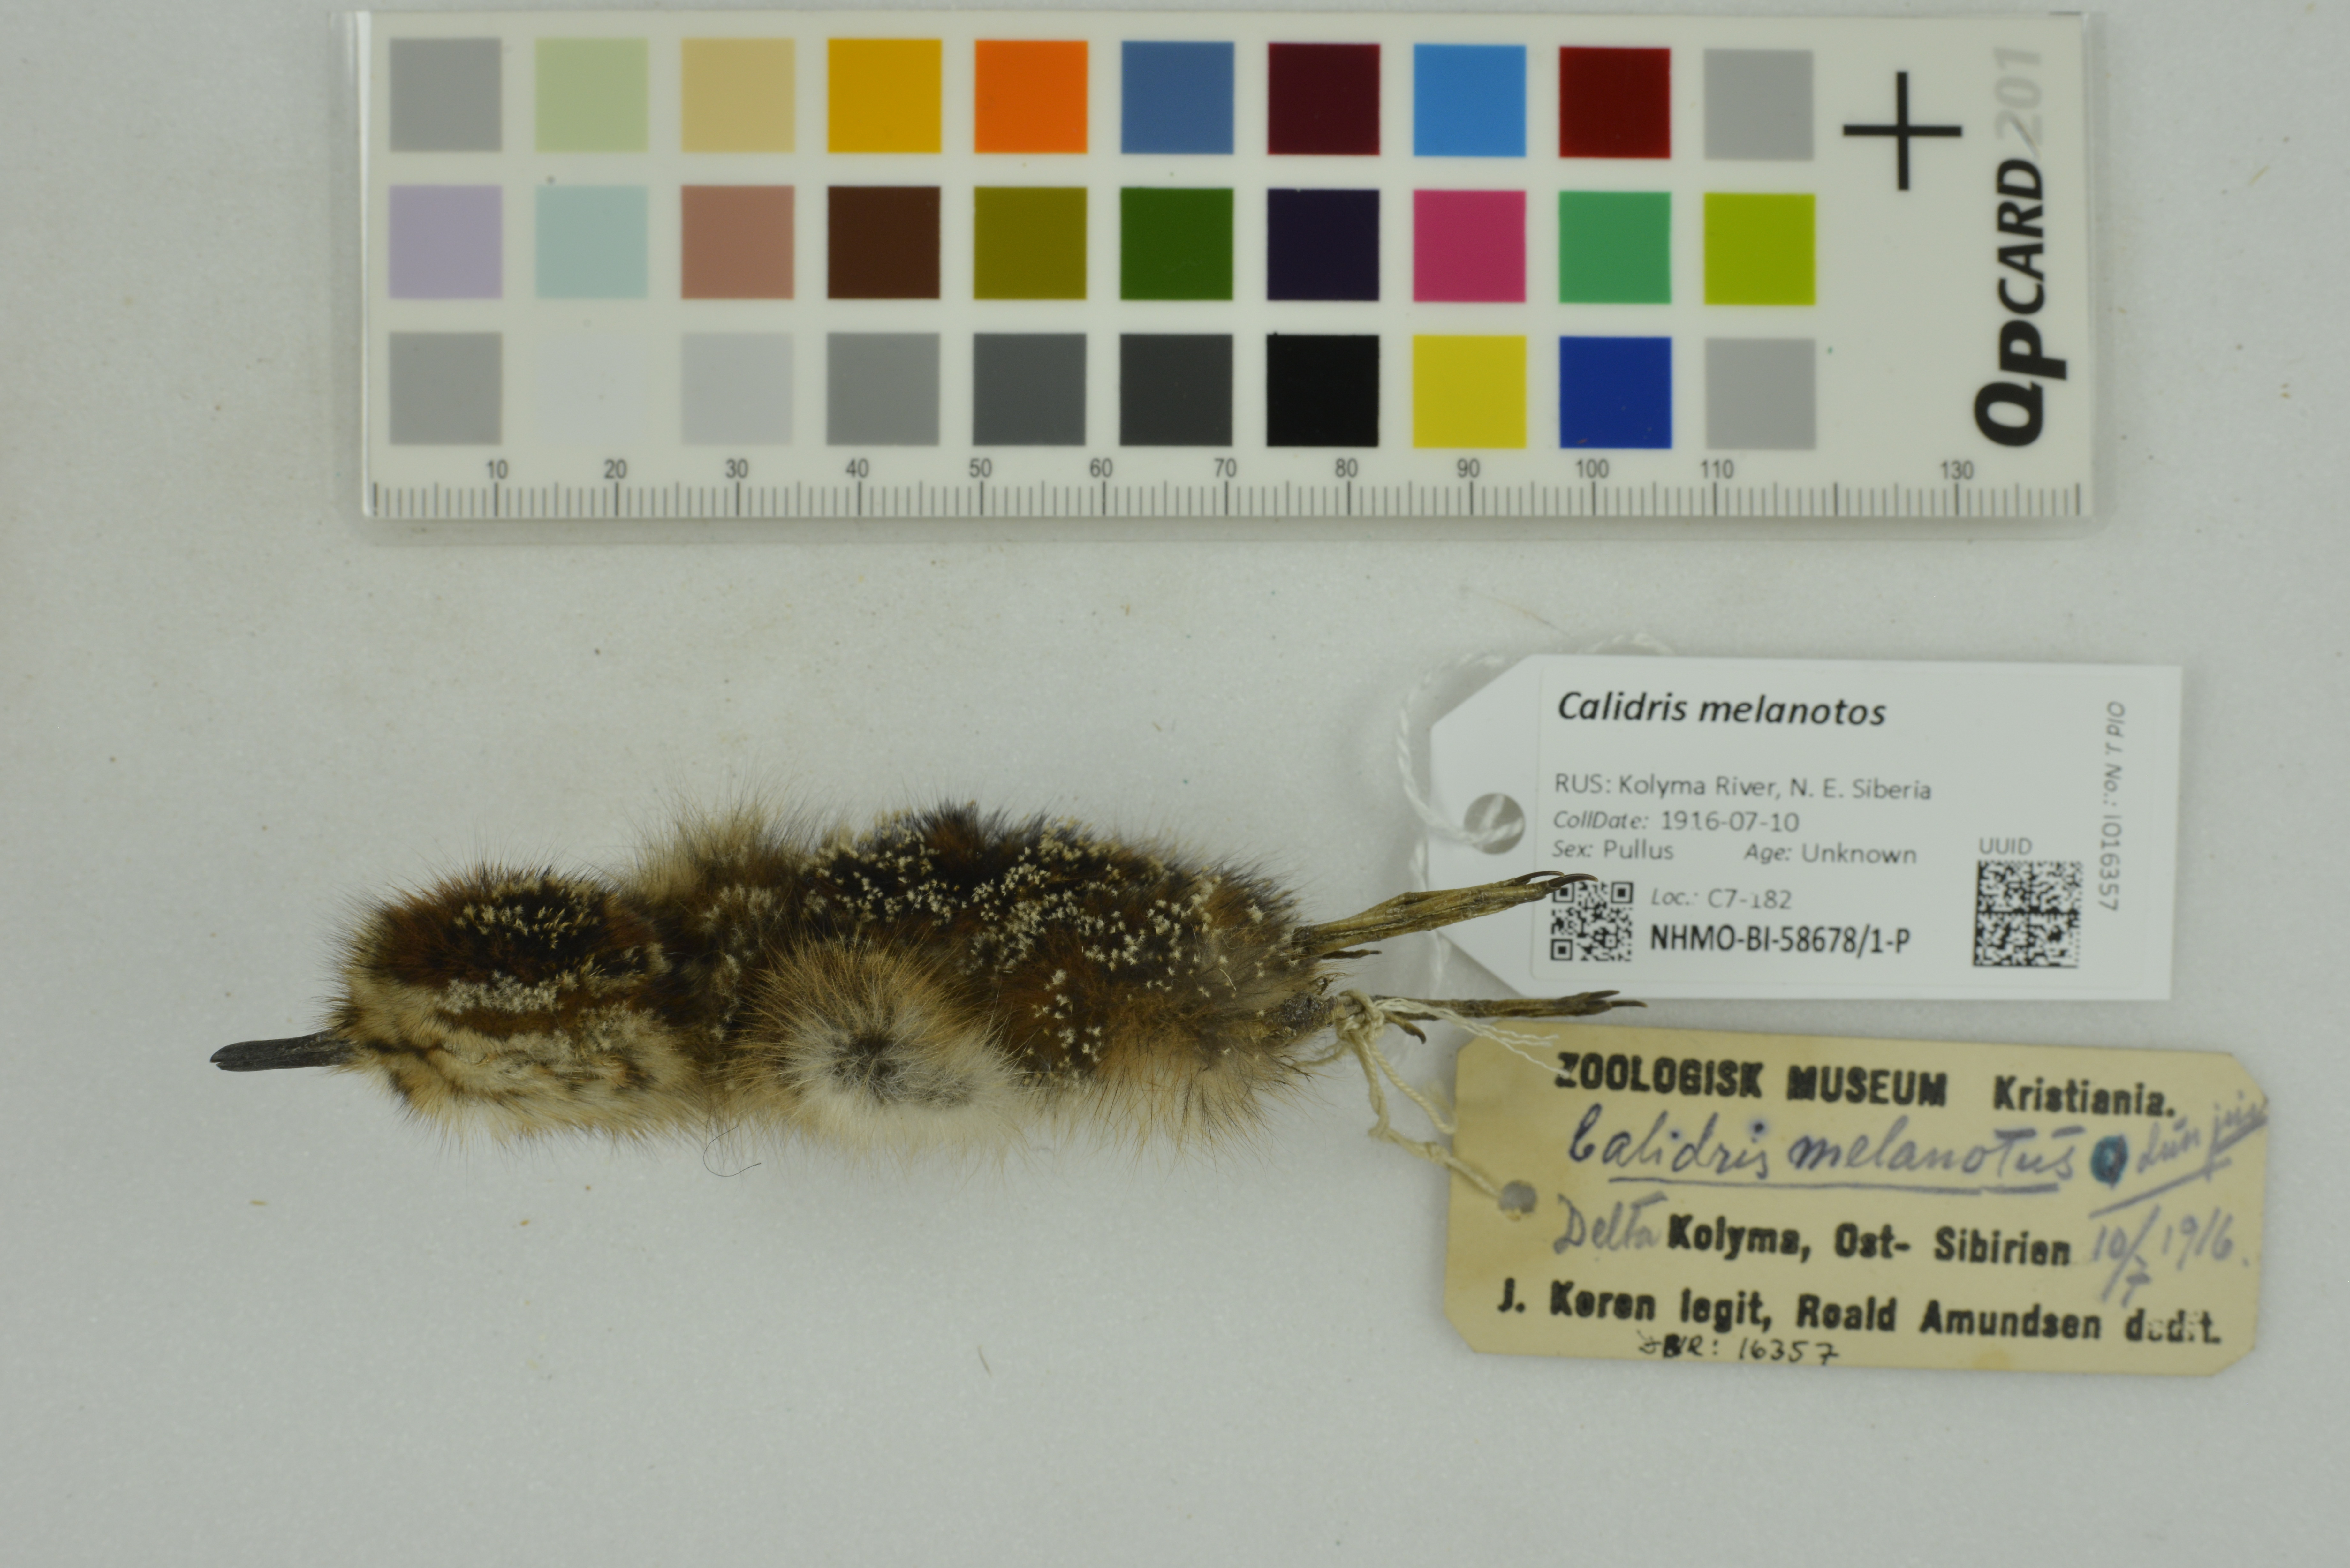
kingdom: Animalia
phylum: Chordata
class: Aves
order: Charadriiformes
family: Scolopacidae
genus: Calidris
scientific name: Calidris melanotos
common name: Pectoral sandpiper
